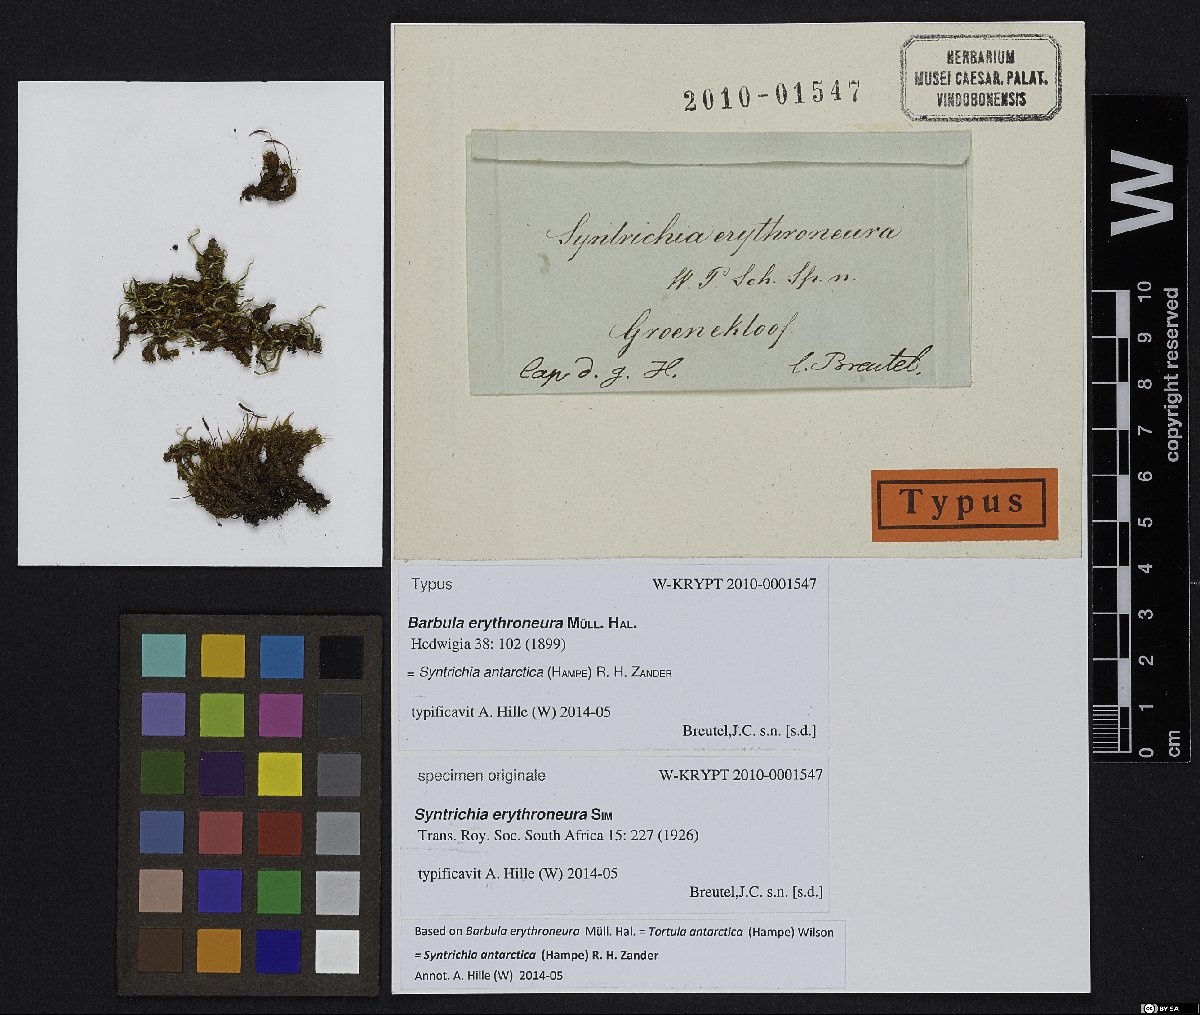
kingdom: Plantae
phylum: Bryophyta
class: Bryopsida
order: Pottiales
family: Pottiaceae
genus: Syntrichia
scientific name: Syntrichia antarctica
